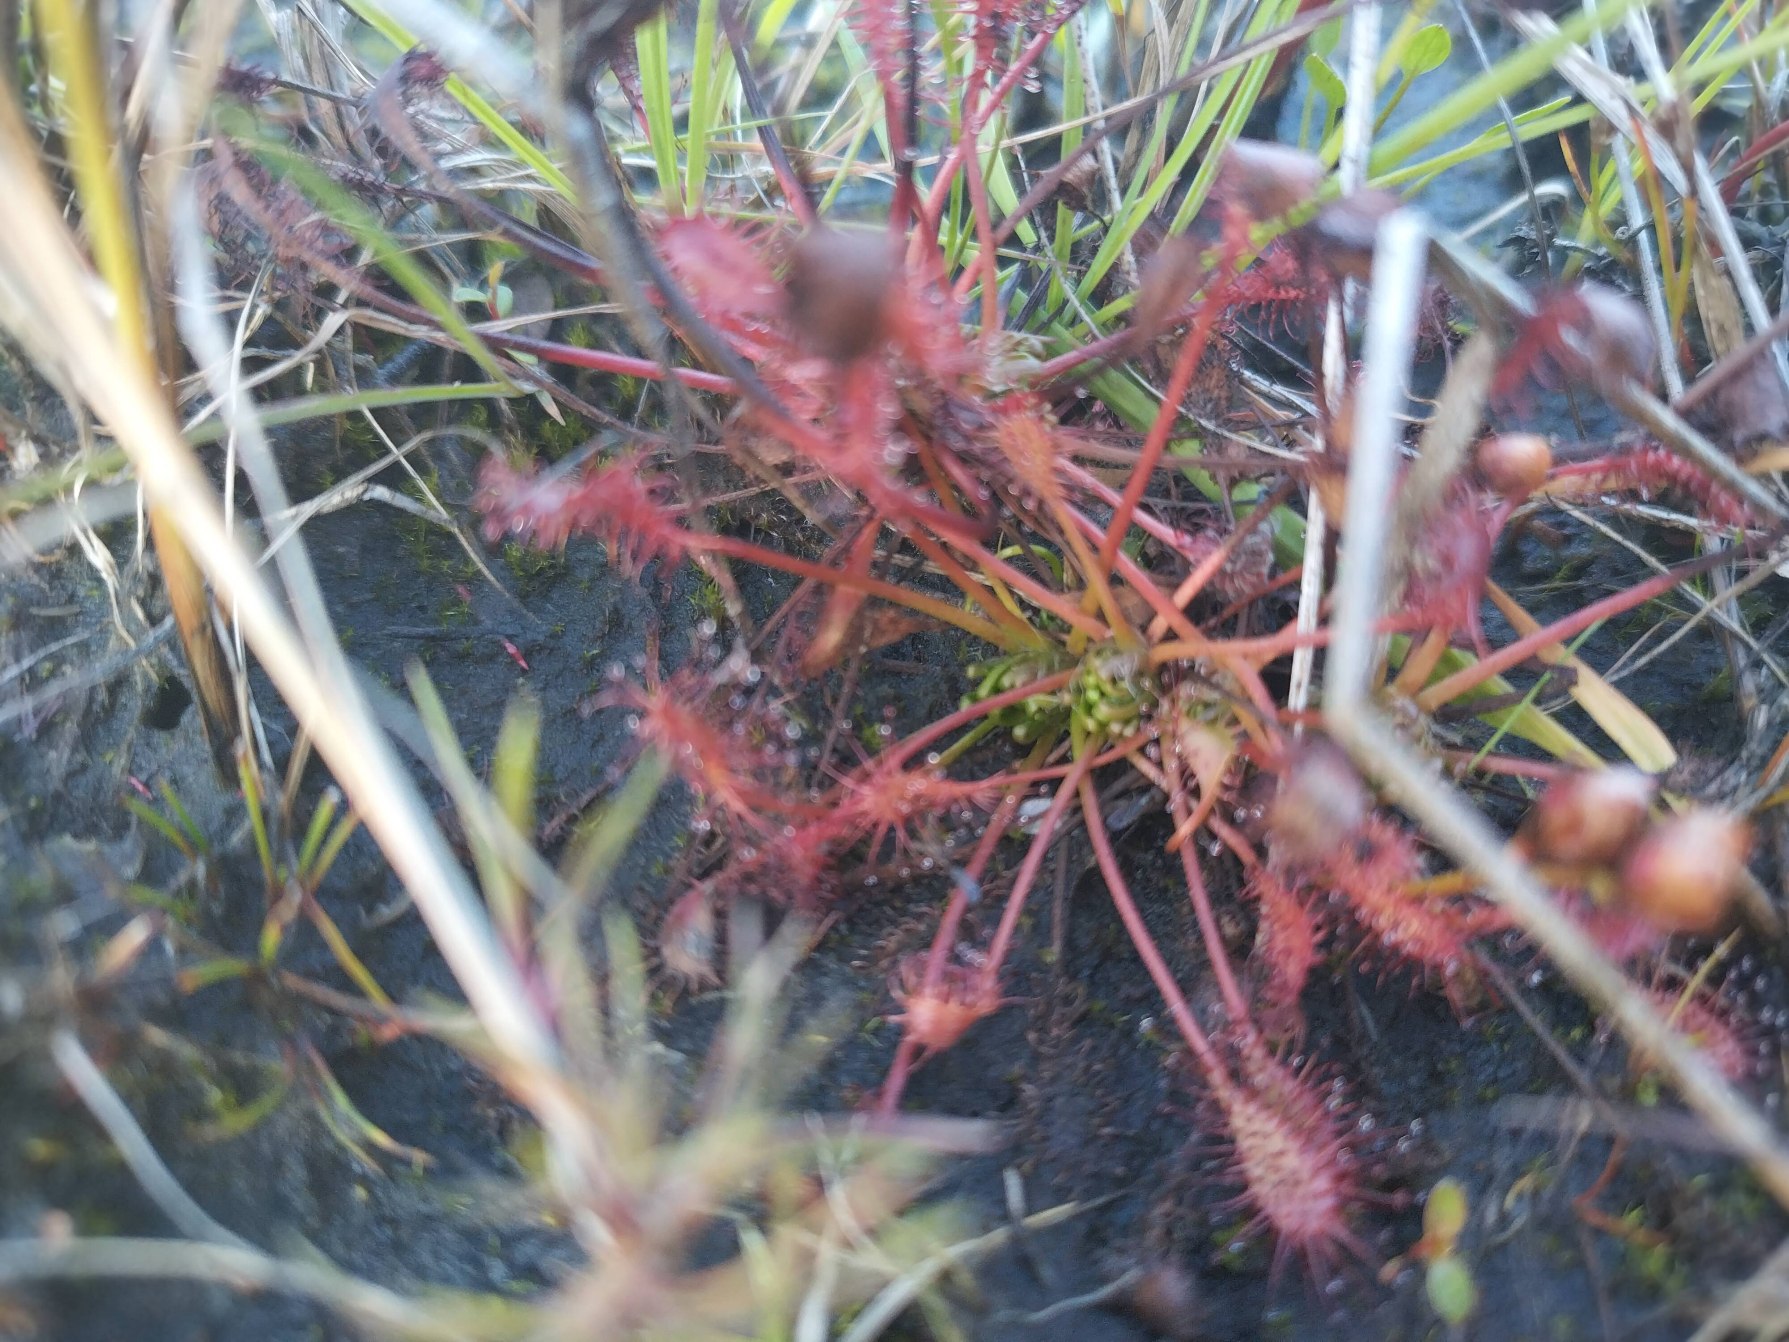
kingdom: Plantae
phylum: Tracheophyta
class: Magnoliopsida
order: Caryophyllales
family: Droseraceae
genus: Drosera
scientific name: Drosera intermedia
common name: Liden soldug
